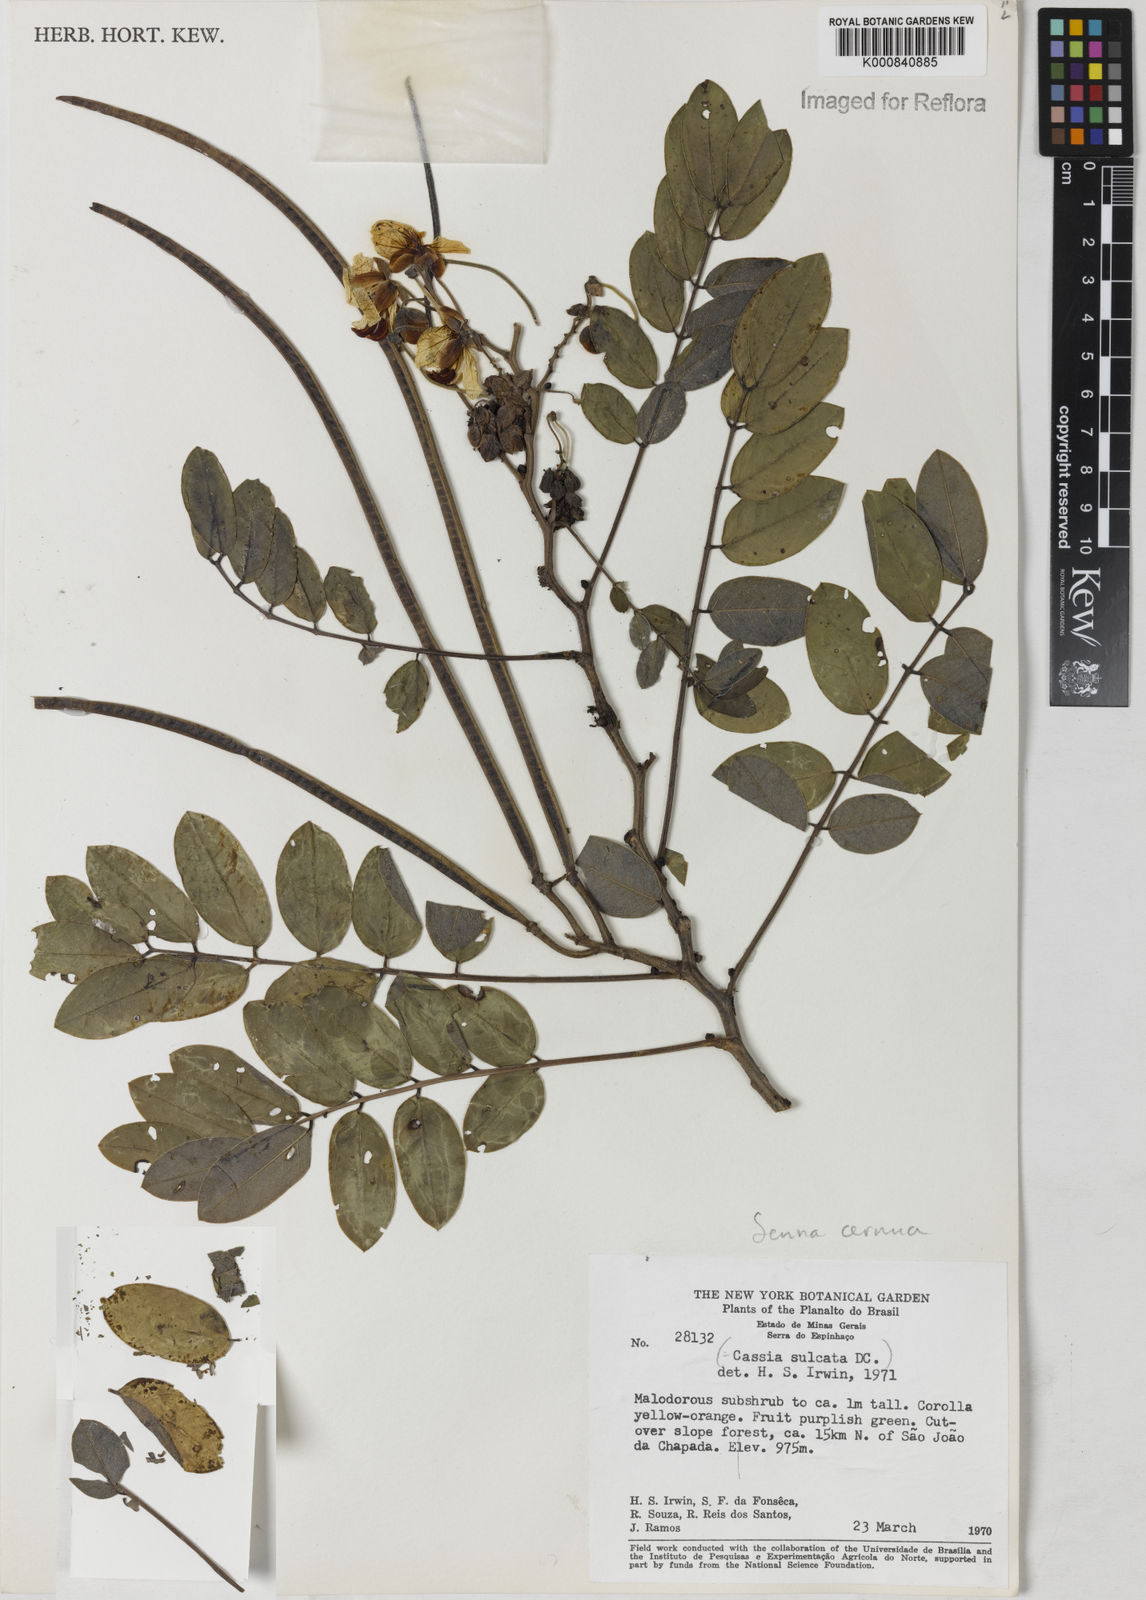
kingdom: Plantae
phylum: Tracheophyta
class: Magnoliopsida
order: Fabales
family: Fabaceae
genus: Senna
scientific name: Senna cernua
